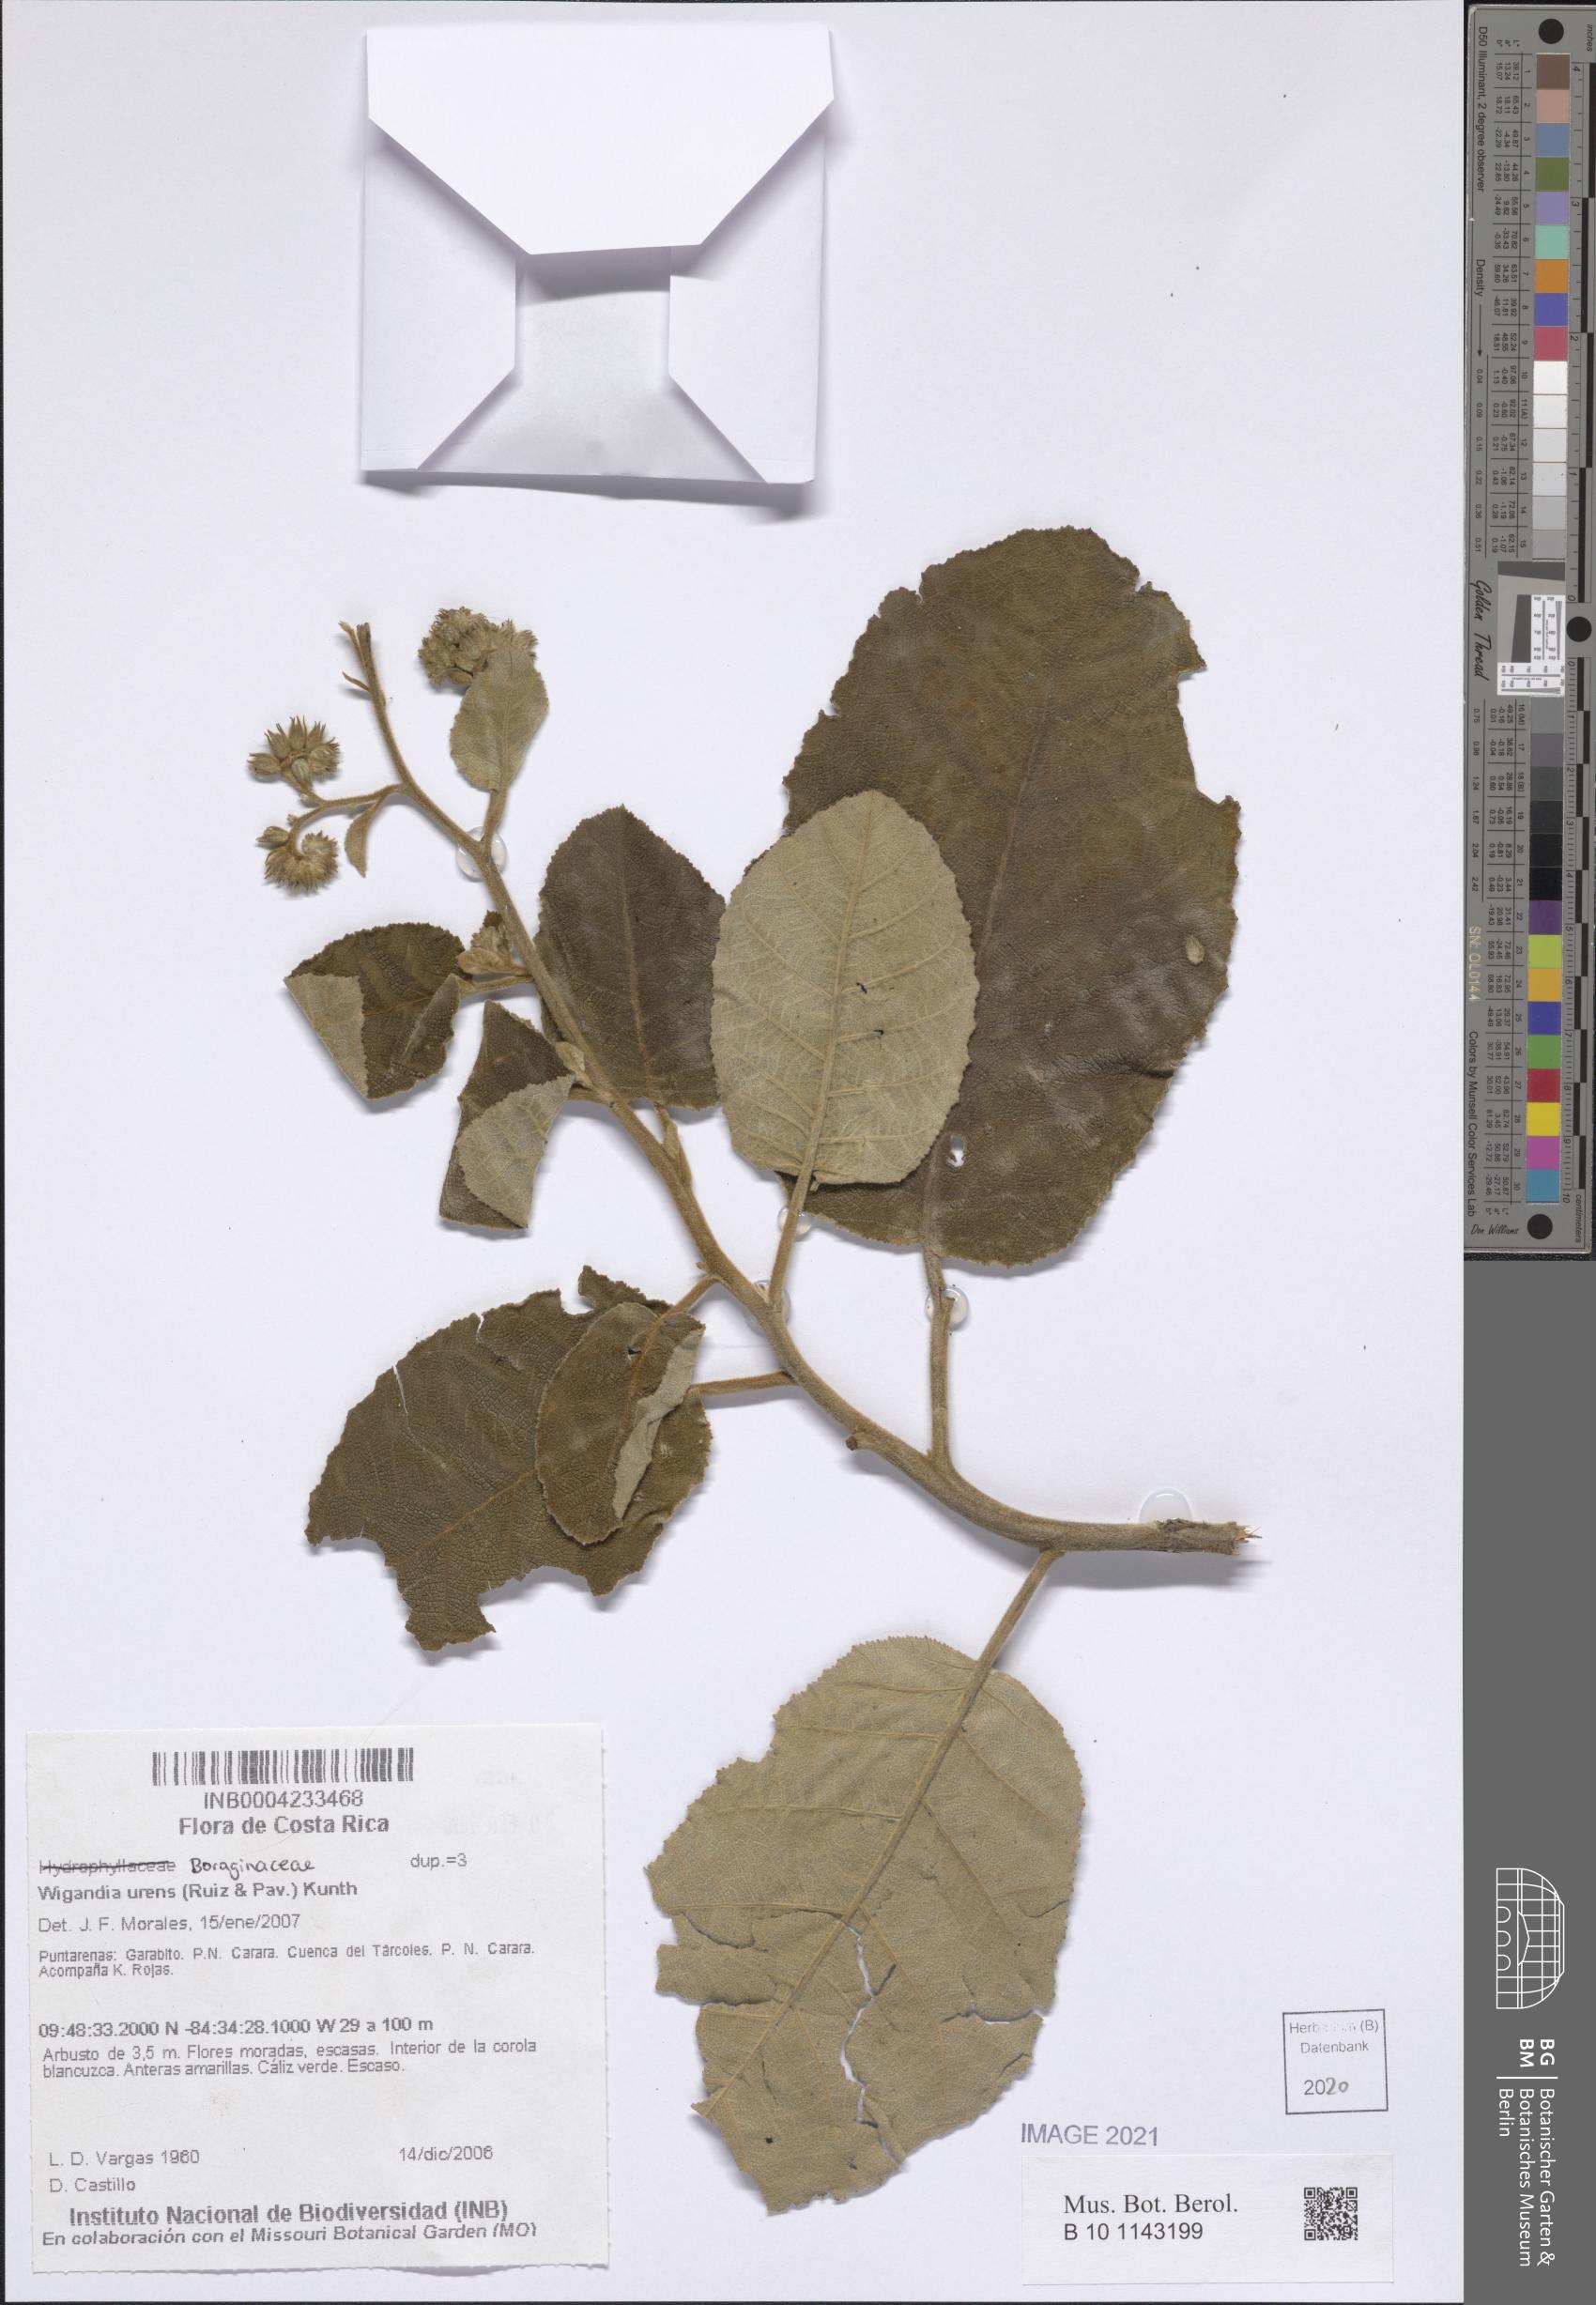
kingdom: Plantae
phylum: Tracheophyta
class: Magnoliopsida
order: Boraginales
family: Namaceae
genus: Wigandia
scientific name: Wigandia urens
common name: Caracus wigandia
